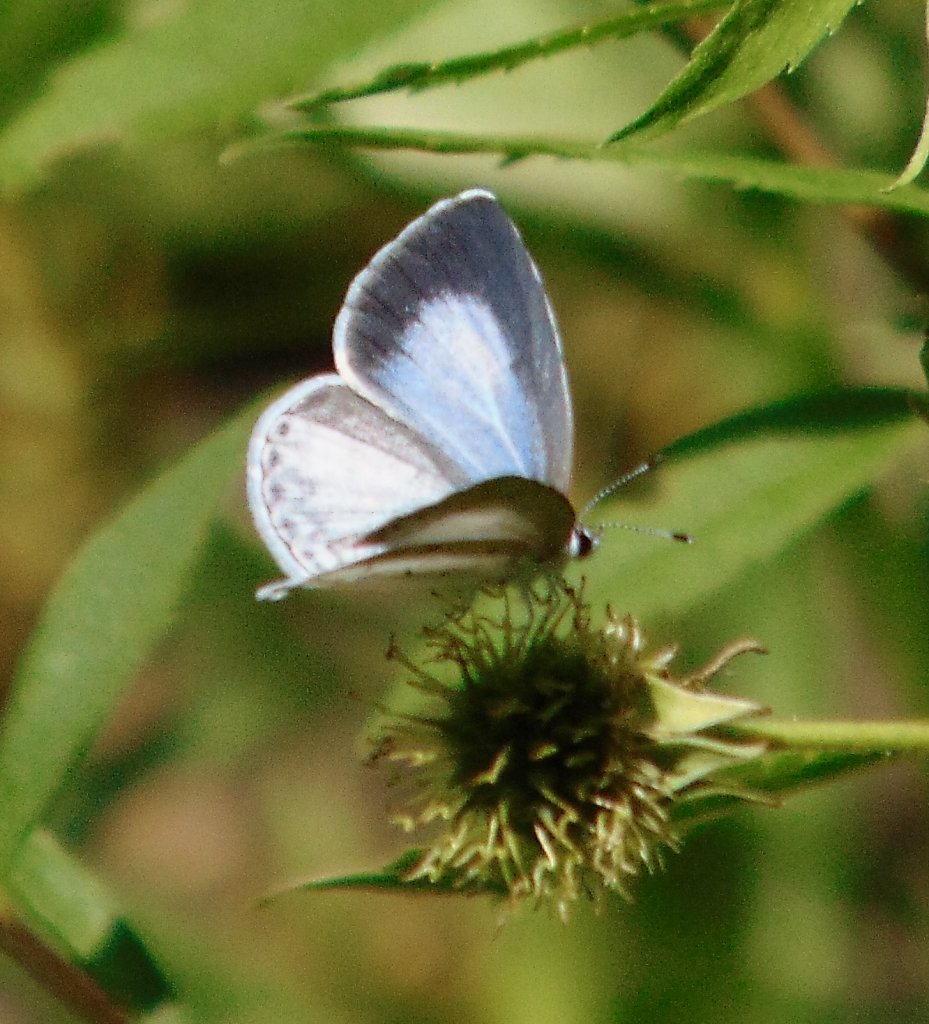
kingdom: Animalia
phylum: Arthropoda
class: Insecta
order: Lepidoptera
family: Lycaenidae
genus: Cyaniris
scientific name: Cyaniris neglecta
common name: Summer Azure
